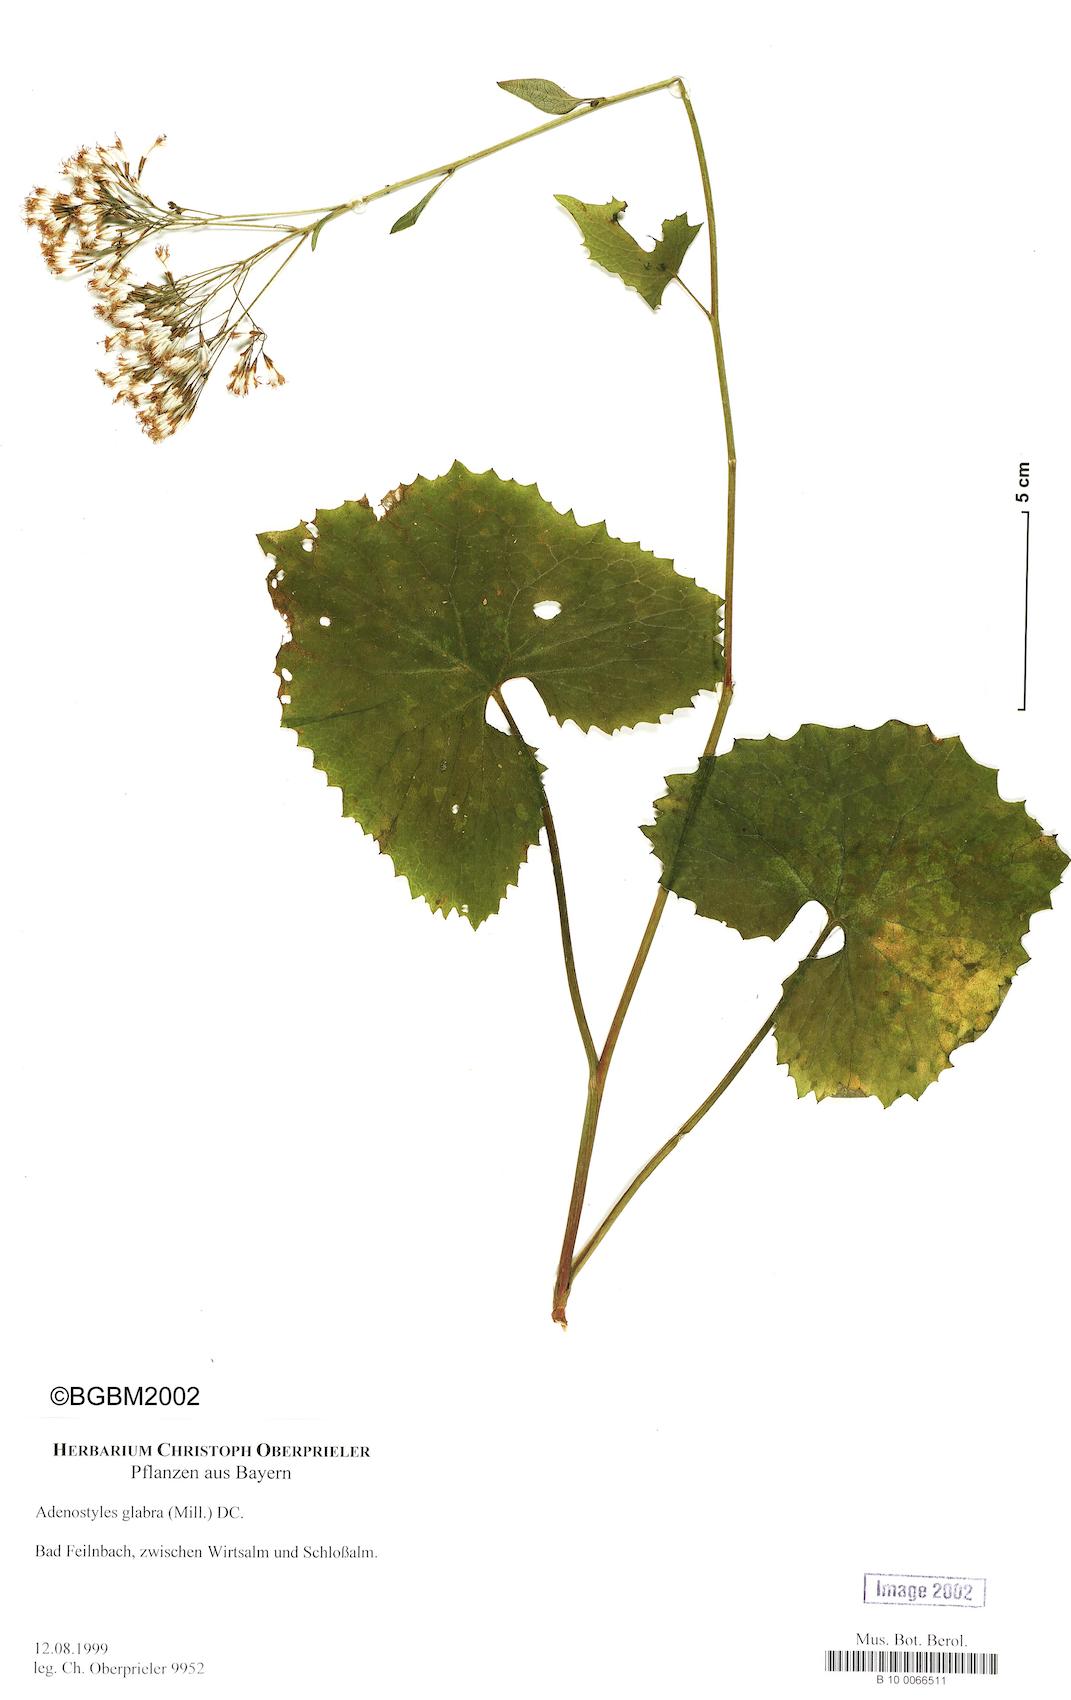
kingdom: Plantae
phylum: Tracheophyta
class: Magnoliopsida
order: Asterales
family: Asteraceae
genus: Adenostyles
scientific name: Adenostyles alpina
